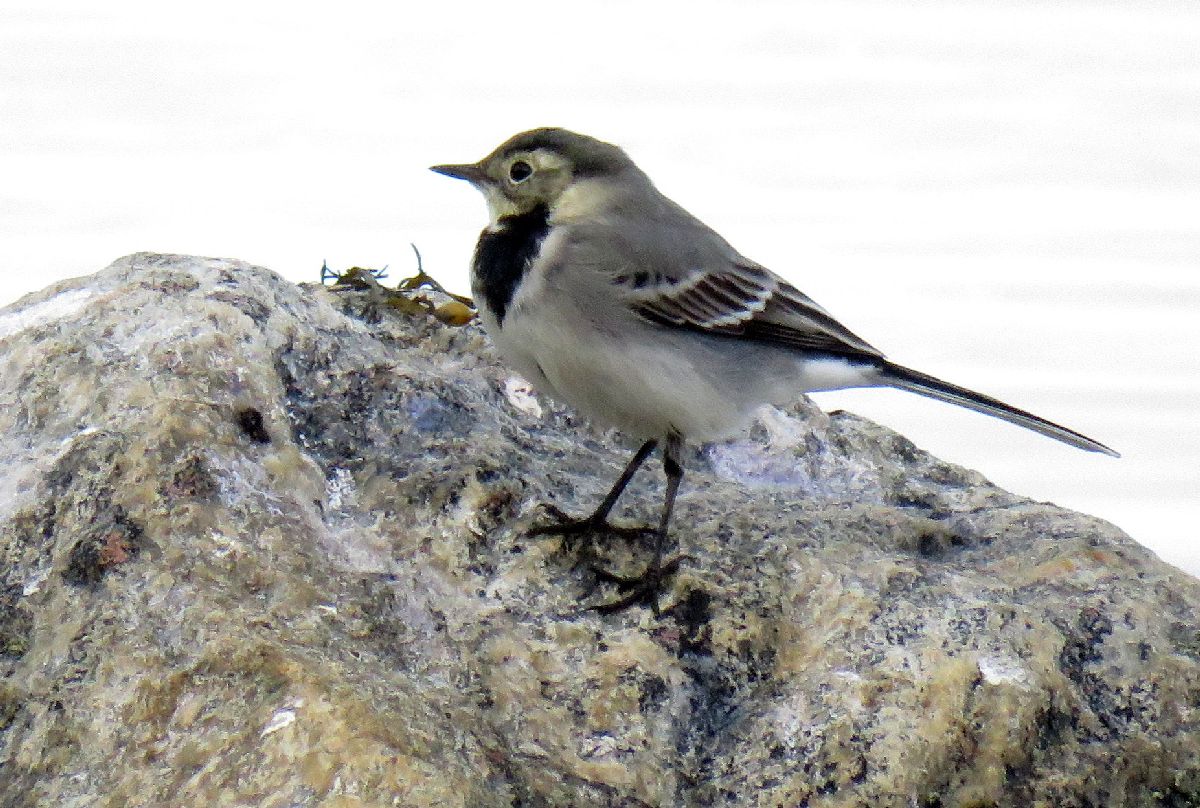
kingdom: Animalia
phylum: Chordata
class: Aves
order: Passeriformes
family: Motacillidae
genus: Motacilla
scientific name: Motacilla alba
